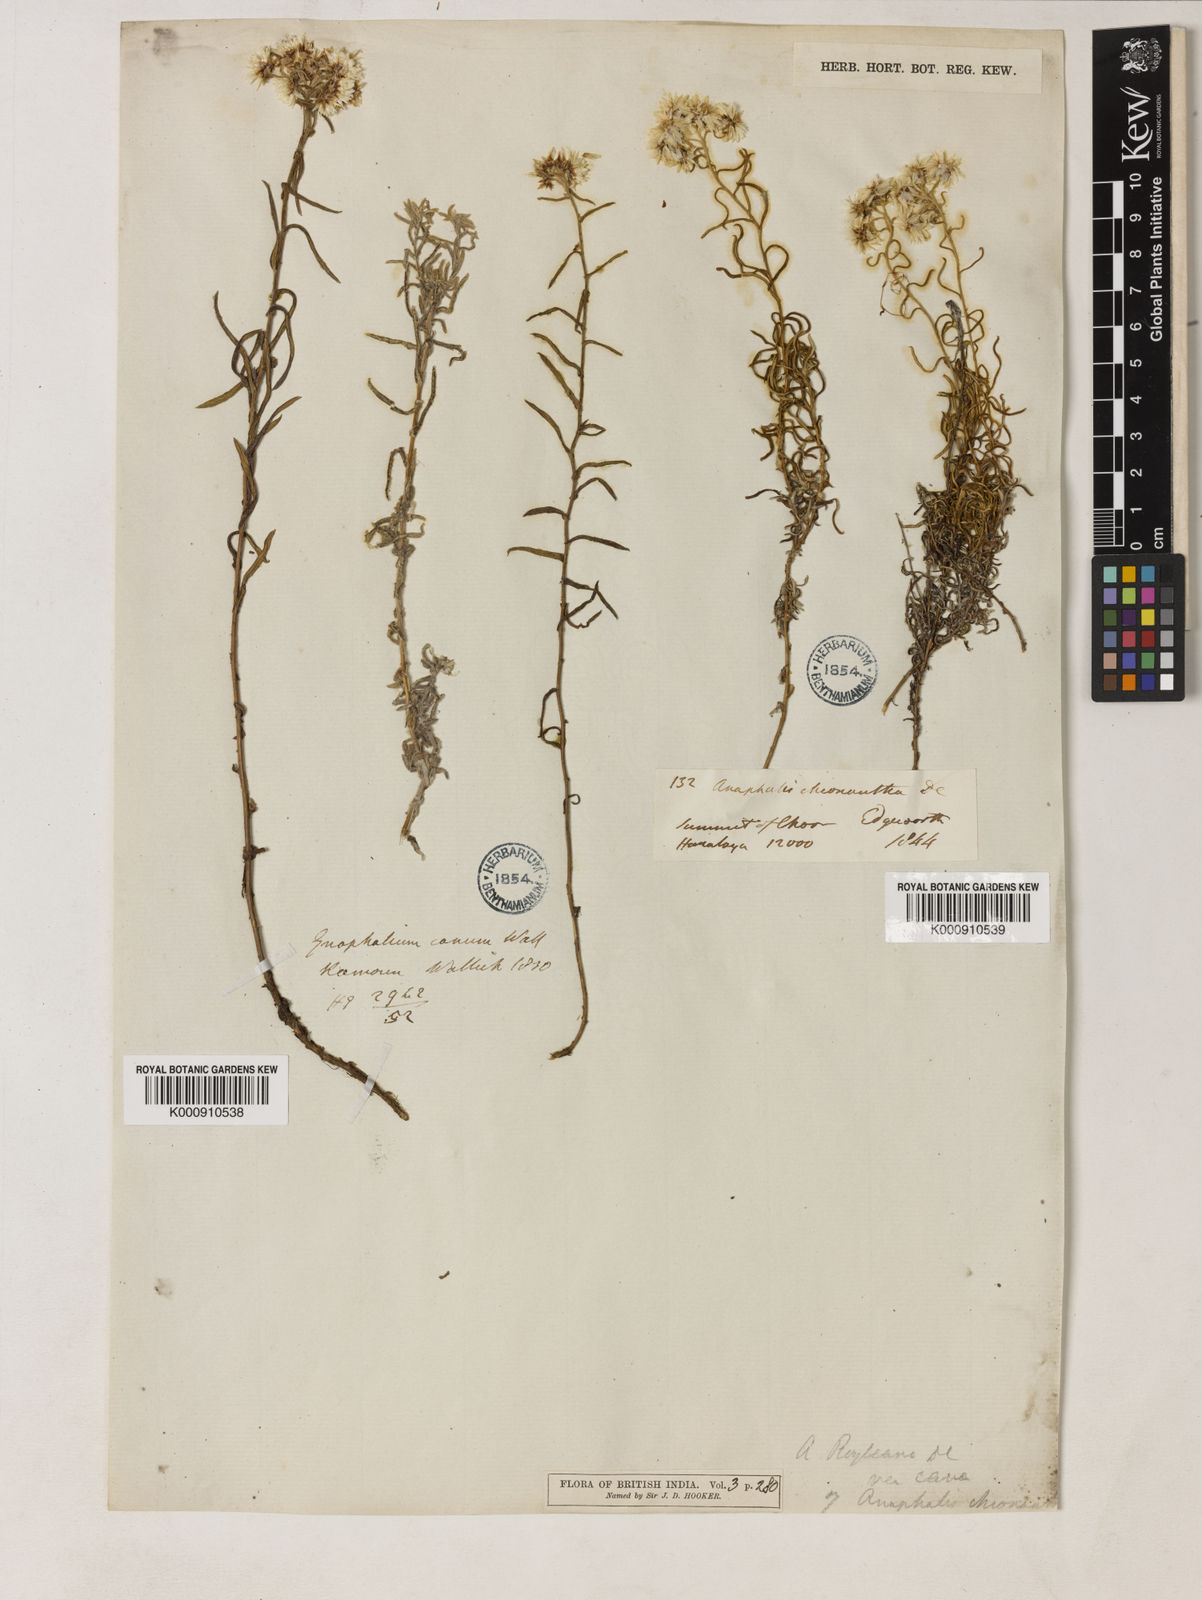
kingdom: Plantae
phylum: Tracheophyta
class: Magnoliopsida
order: Asterales
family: Asteraceae
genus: Anaphalis
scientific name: Anaphalis royleana
